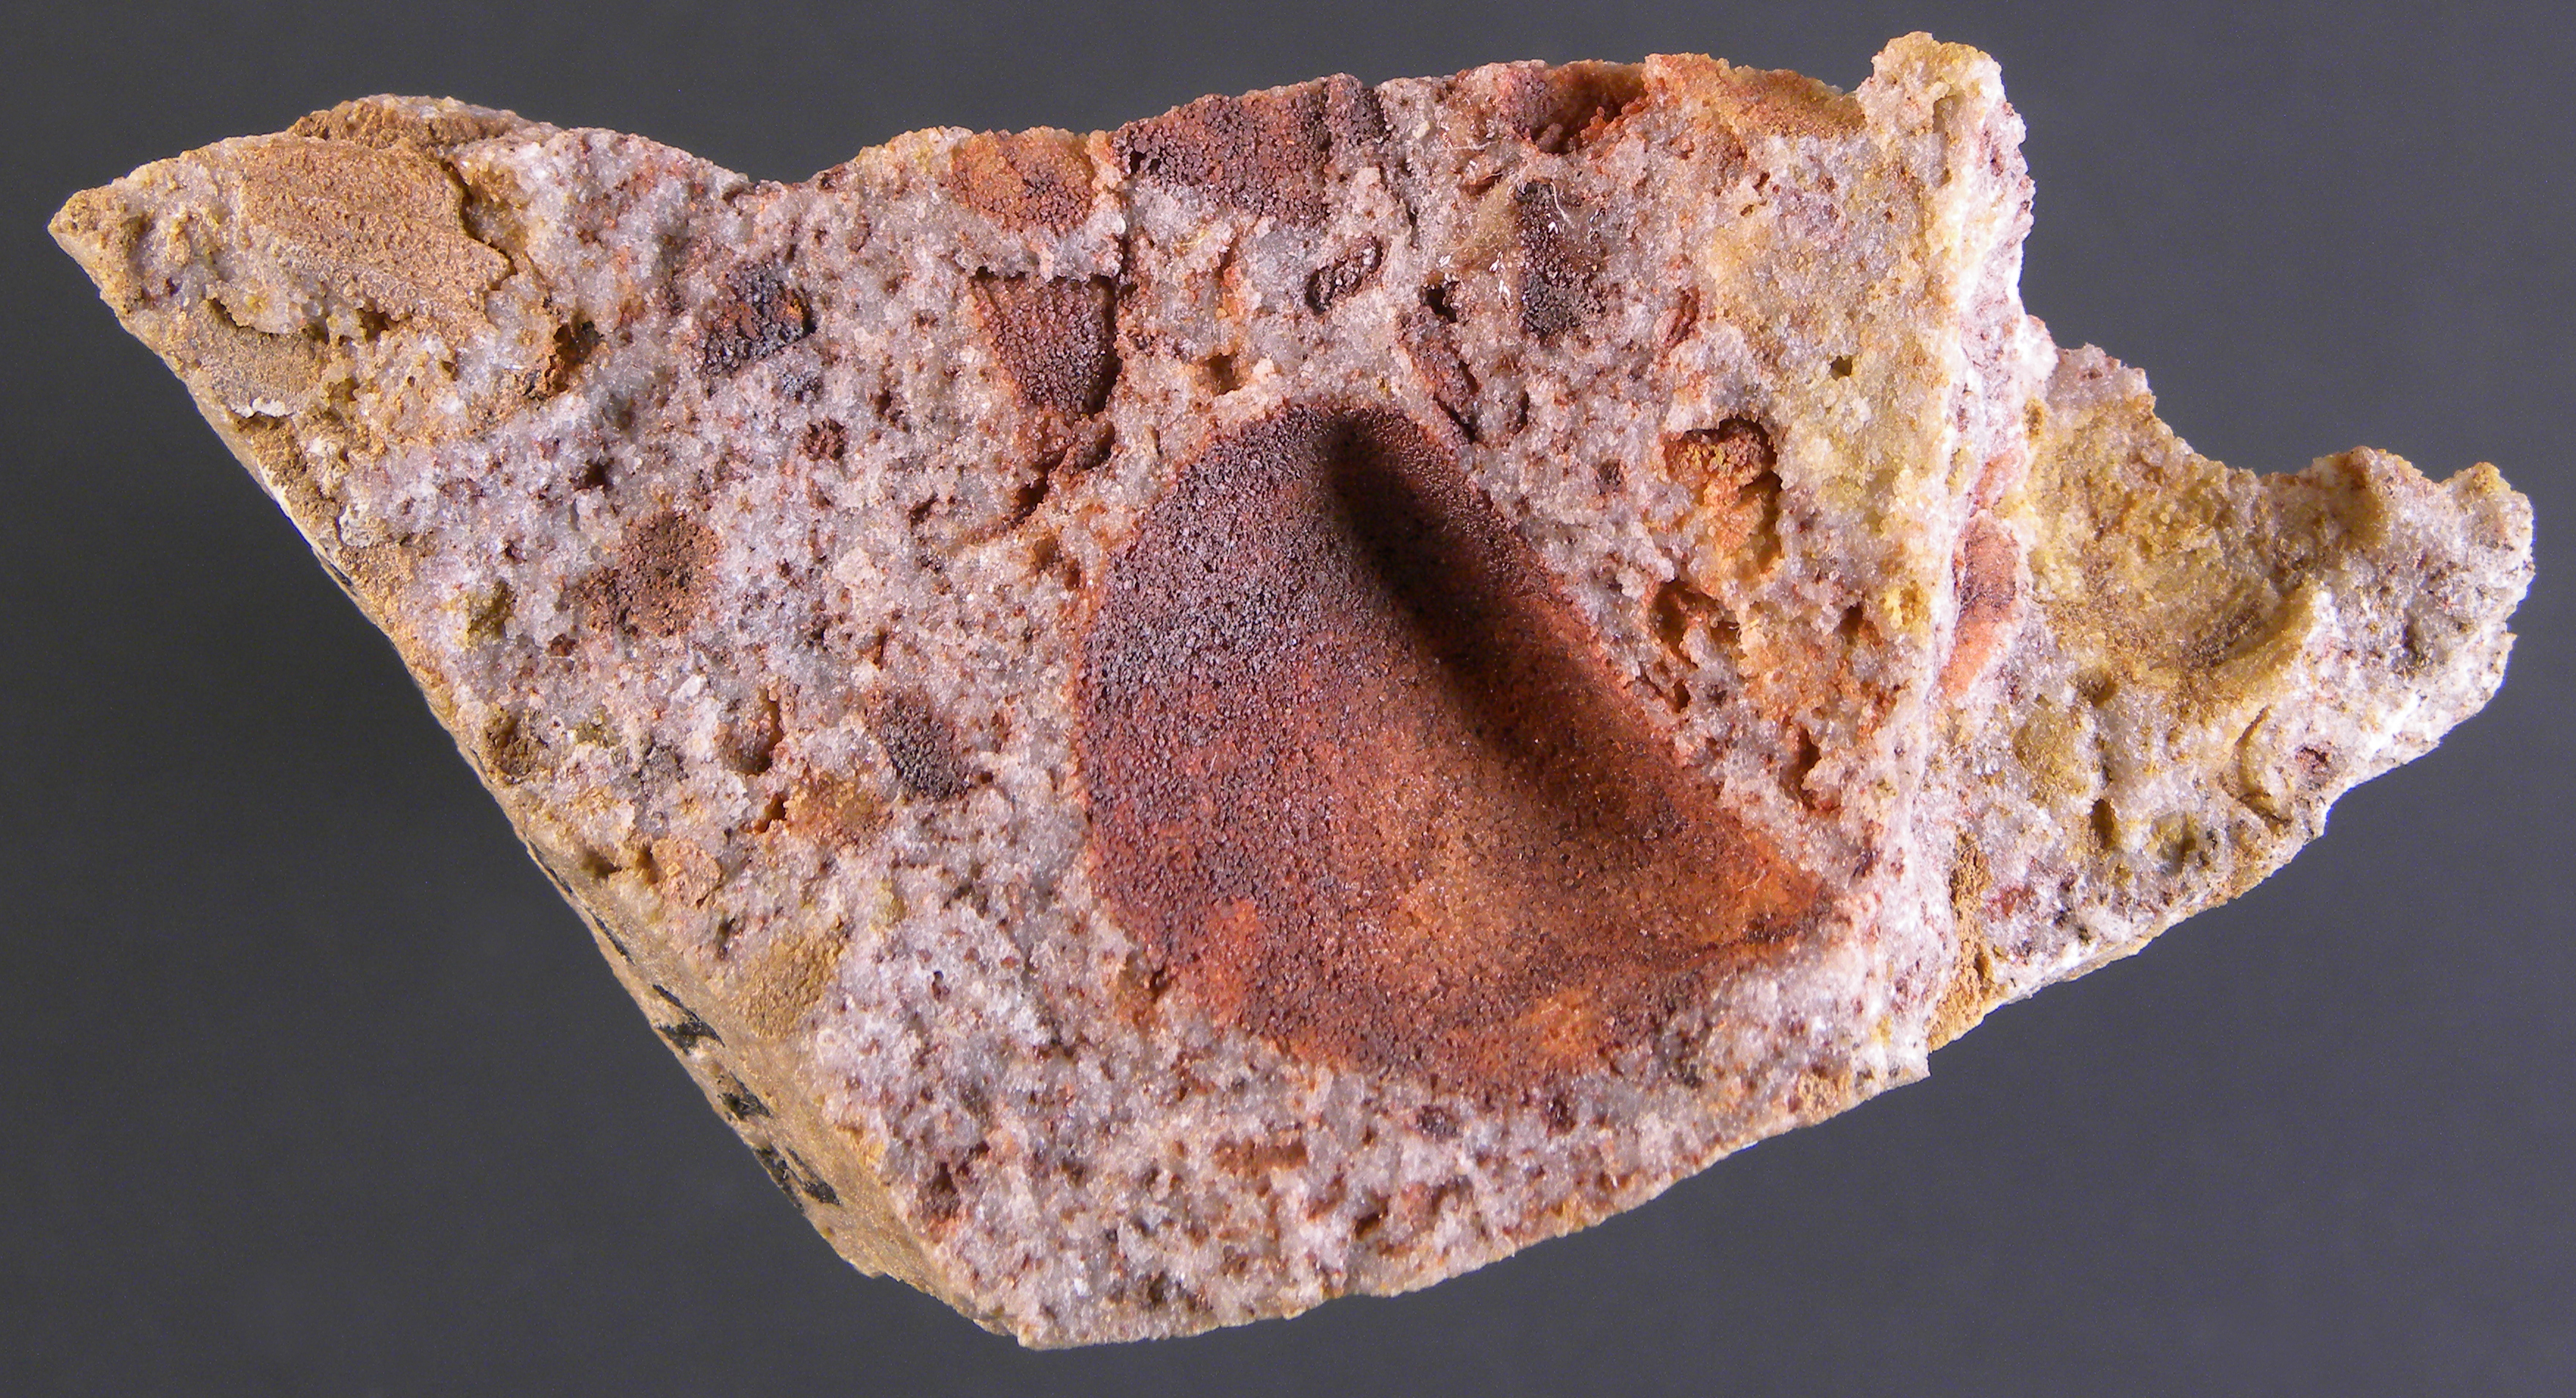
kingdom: Animalia
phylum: Mollusca
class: Bivalvia
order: Myalinida
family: Ambonychiidae
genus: Mytilarca
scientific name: Mytilarca
